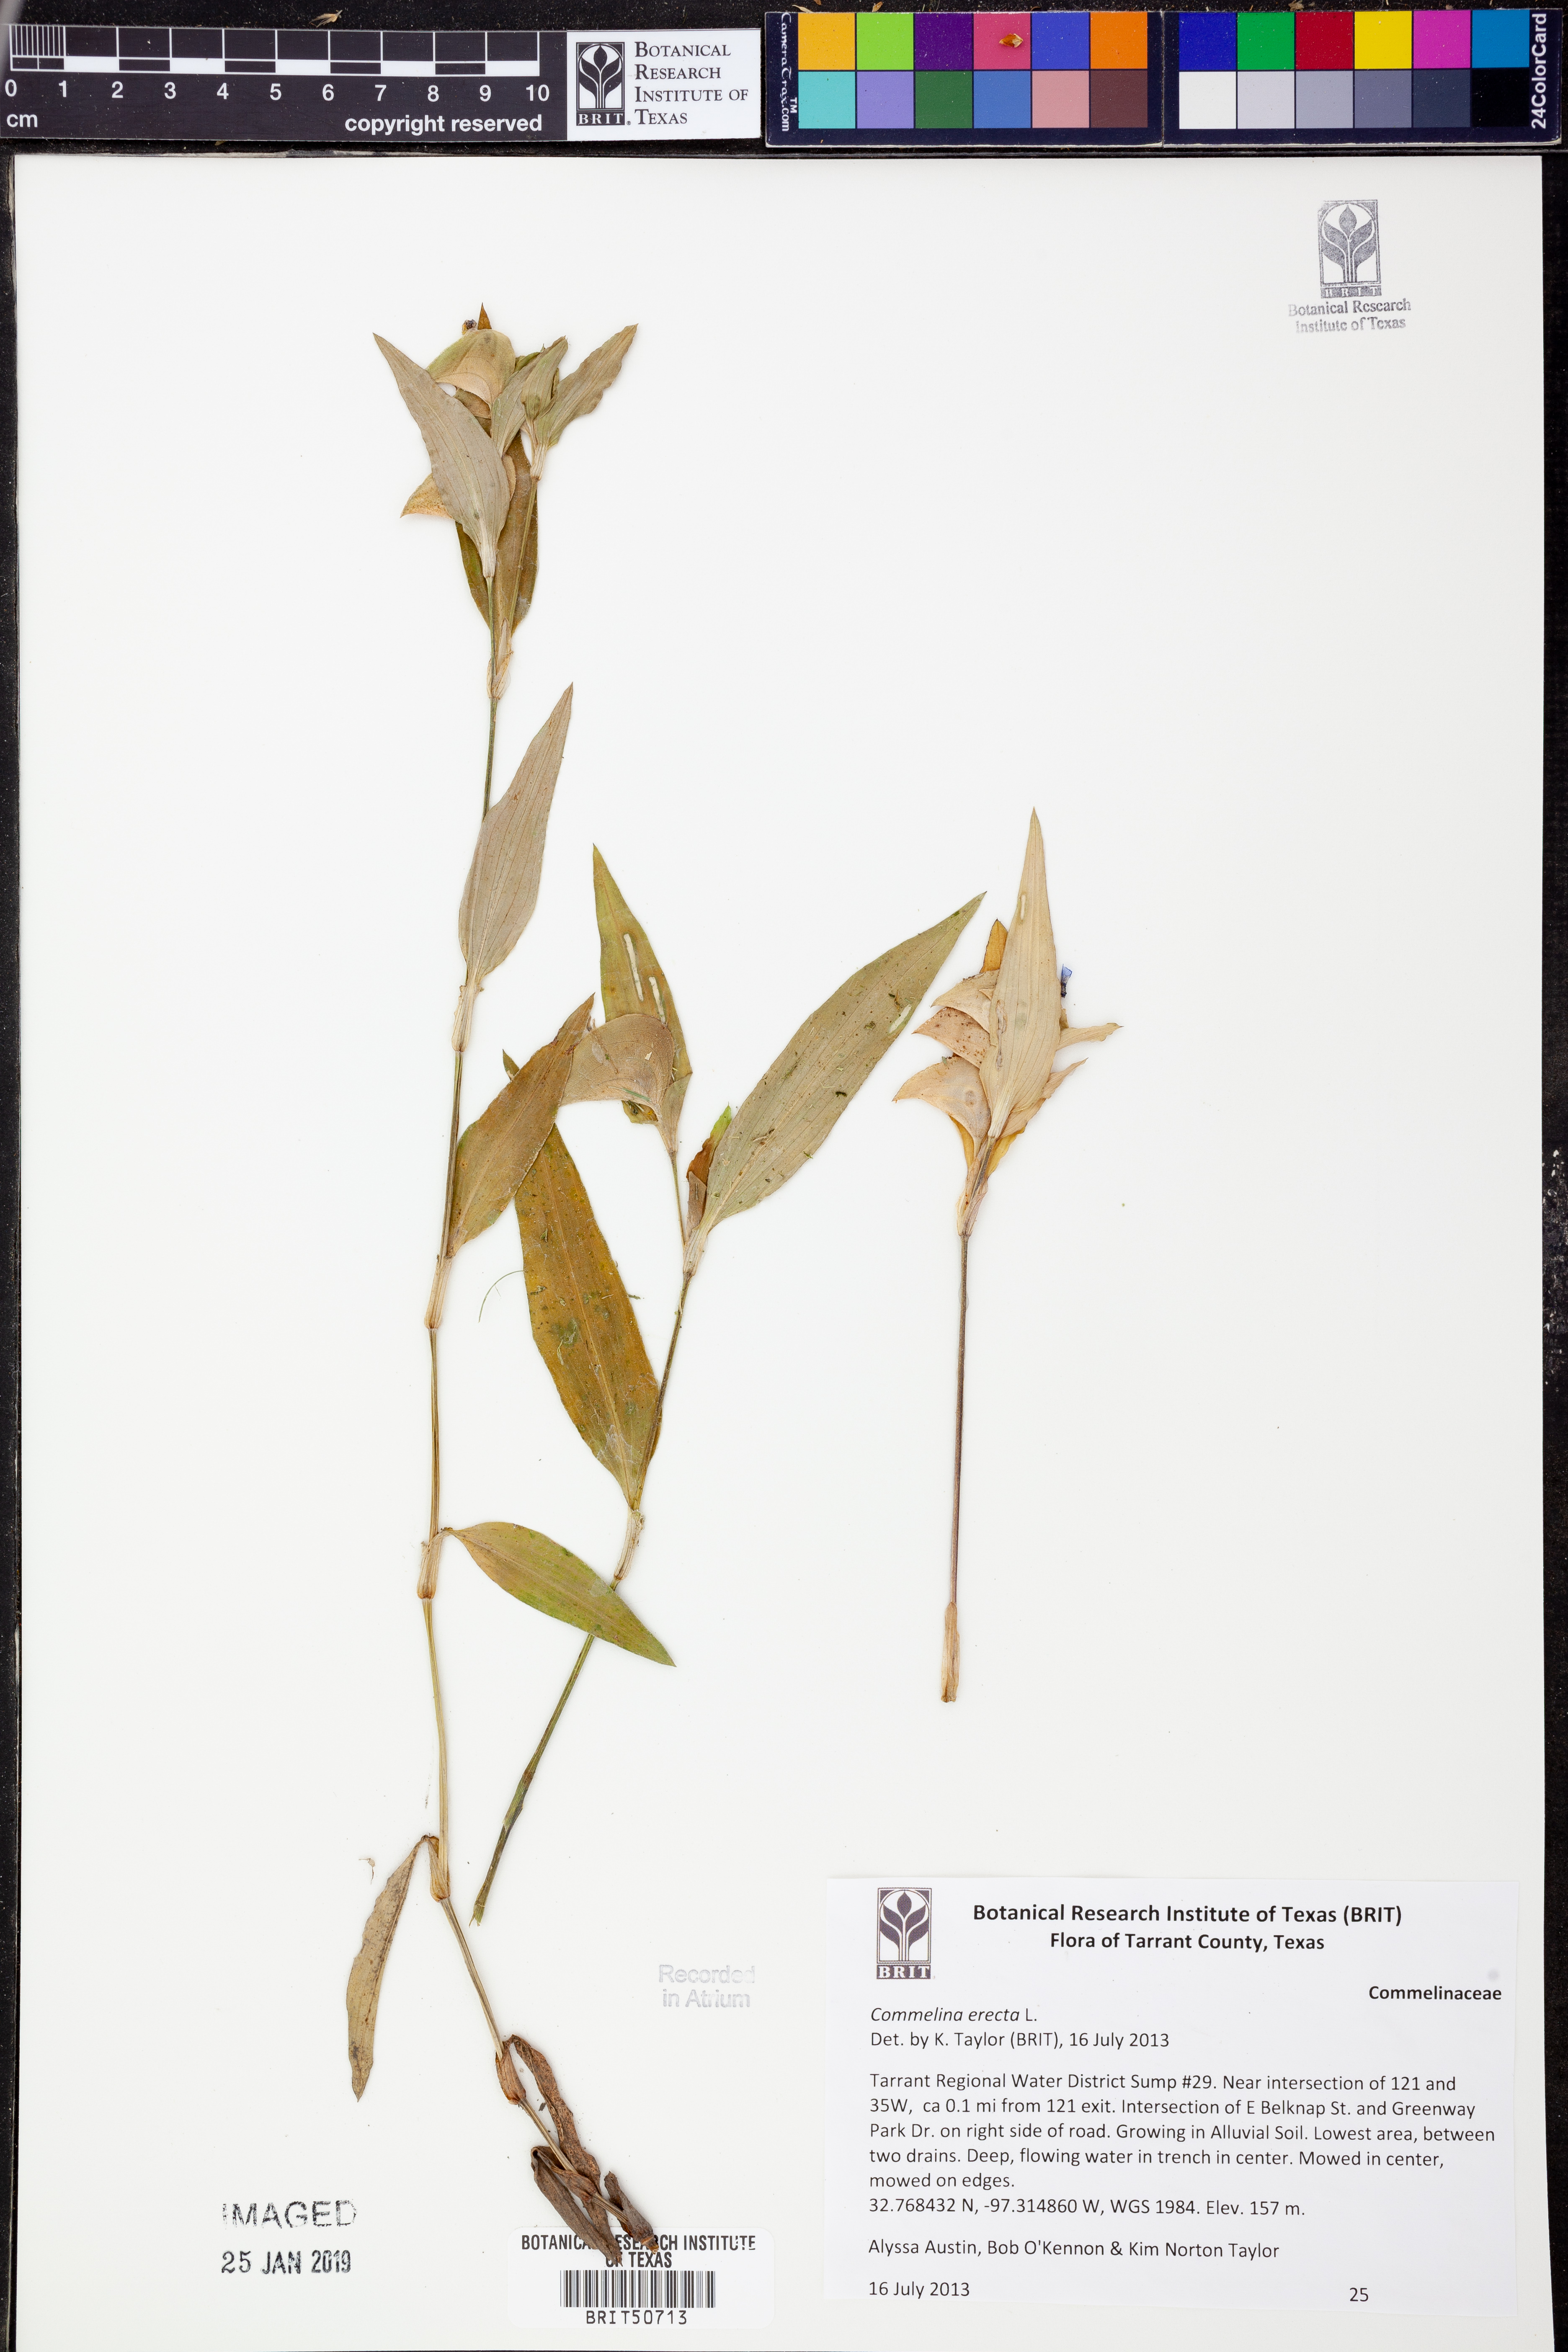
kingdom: Plantae
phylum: Tracheophyta
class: Liliopsida
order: Commelinales
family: Commelinaceae
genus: Commelina
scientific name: Commelina erecta
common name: Blousel blommetjie
